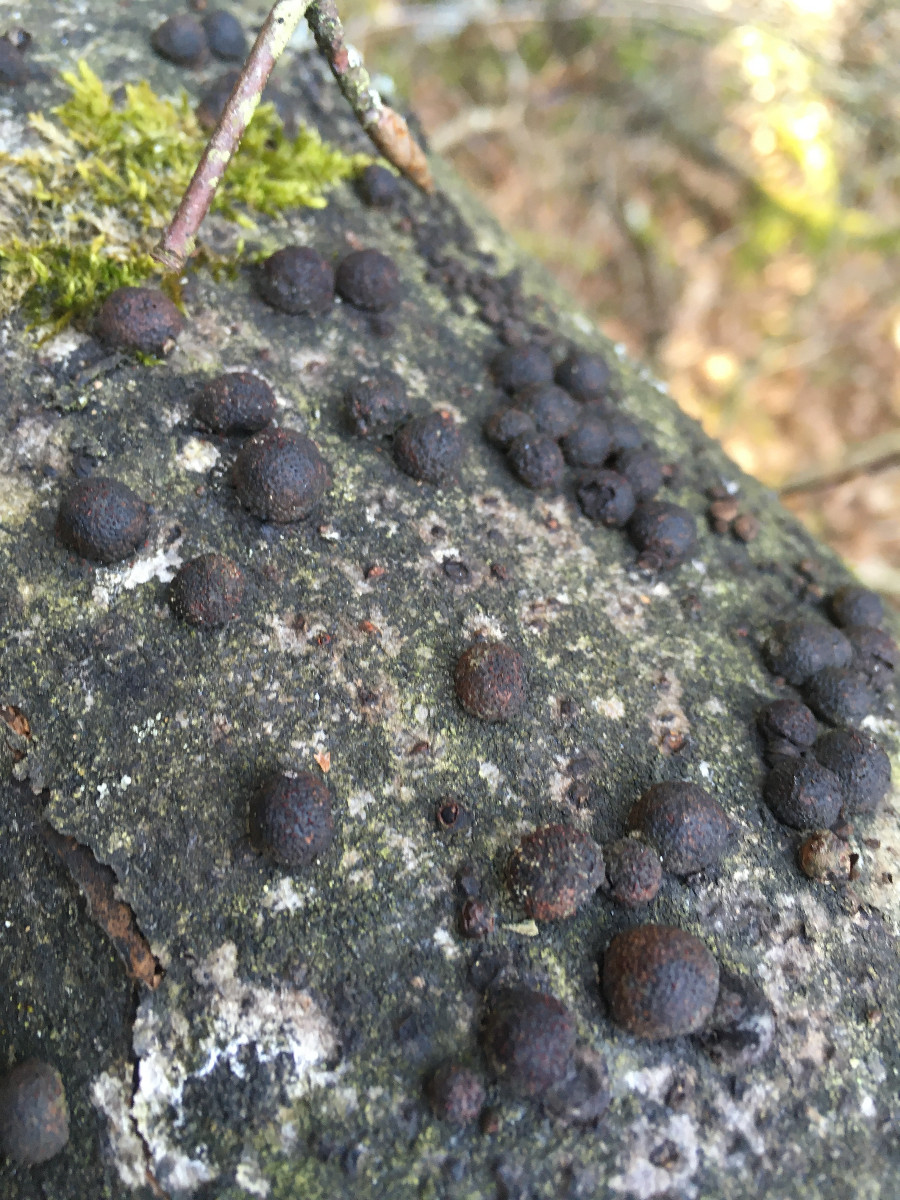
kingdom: Fungi
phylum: Ascomycota
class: Sordariomycetes
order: Xylariales
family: Hypoxylaceae
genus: Hypoxylon
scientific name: Hypoxylon fragiforme
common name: kuljordbær
